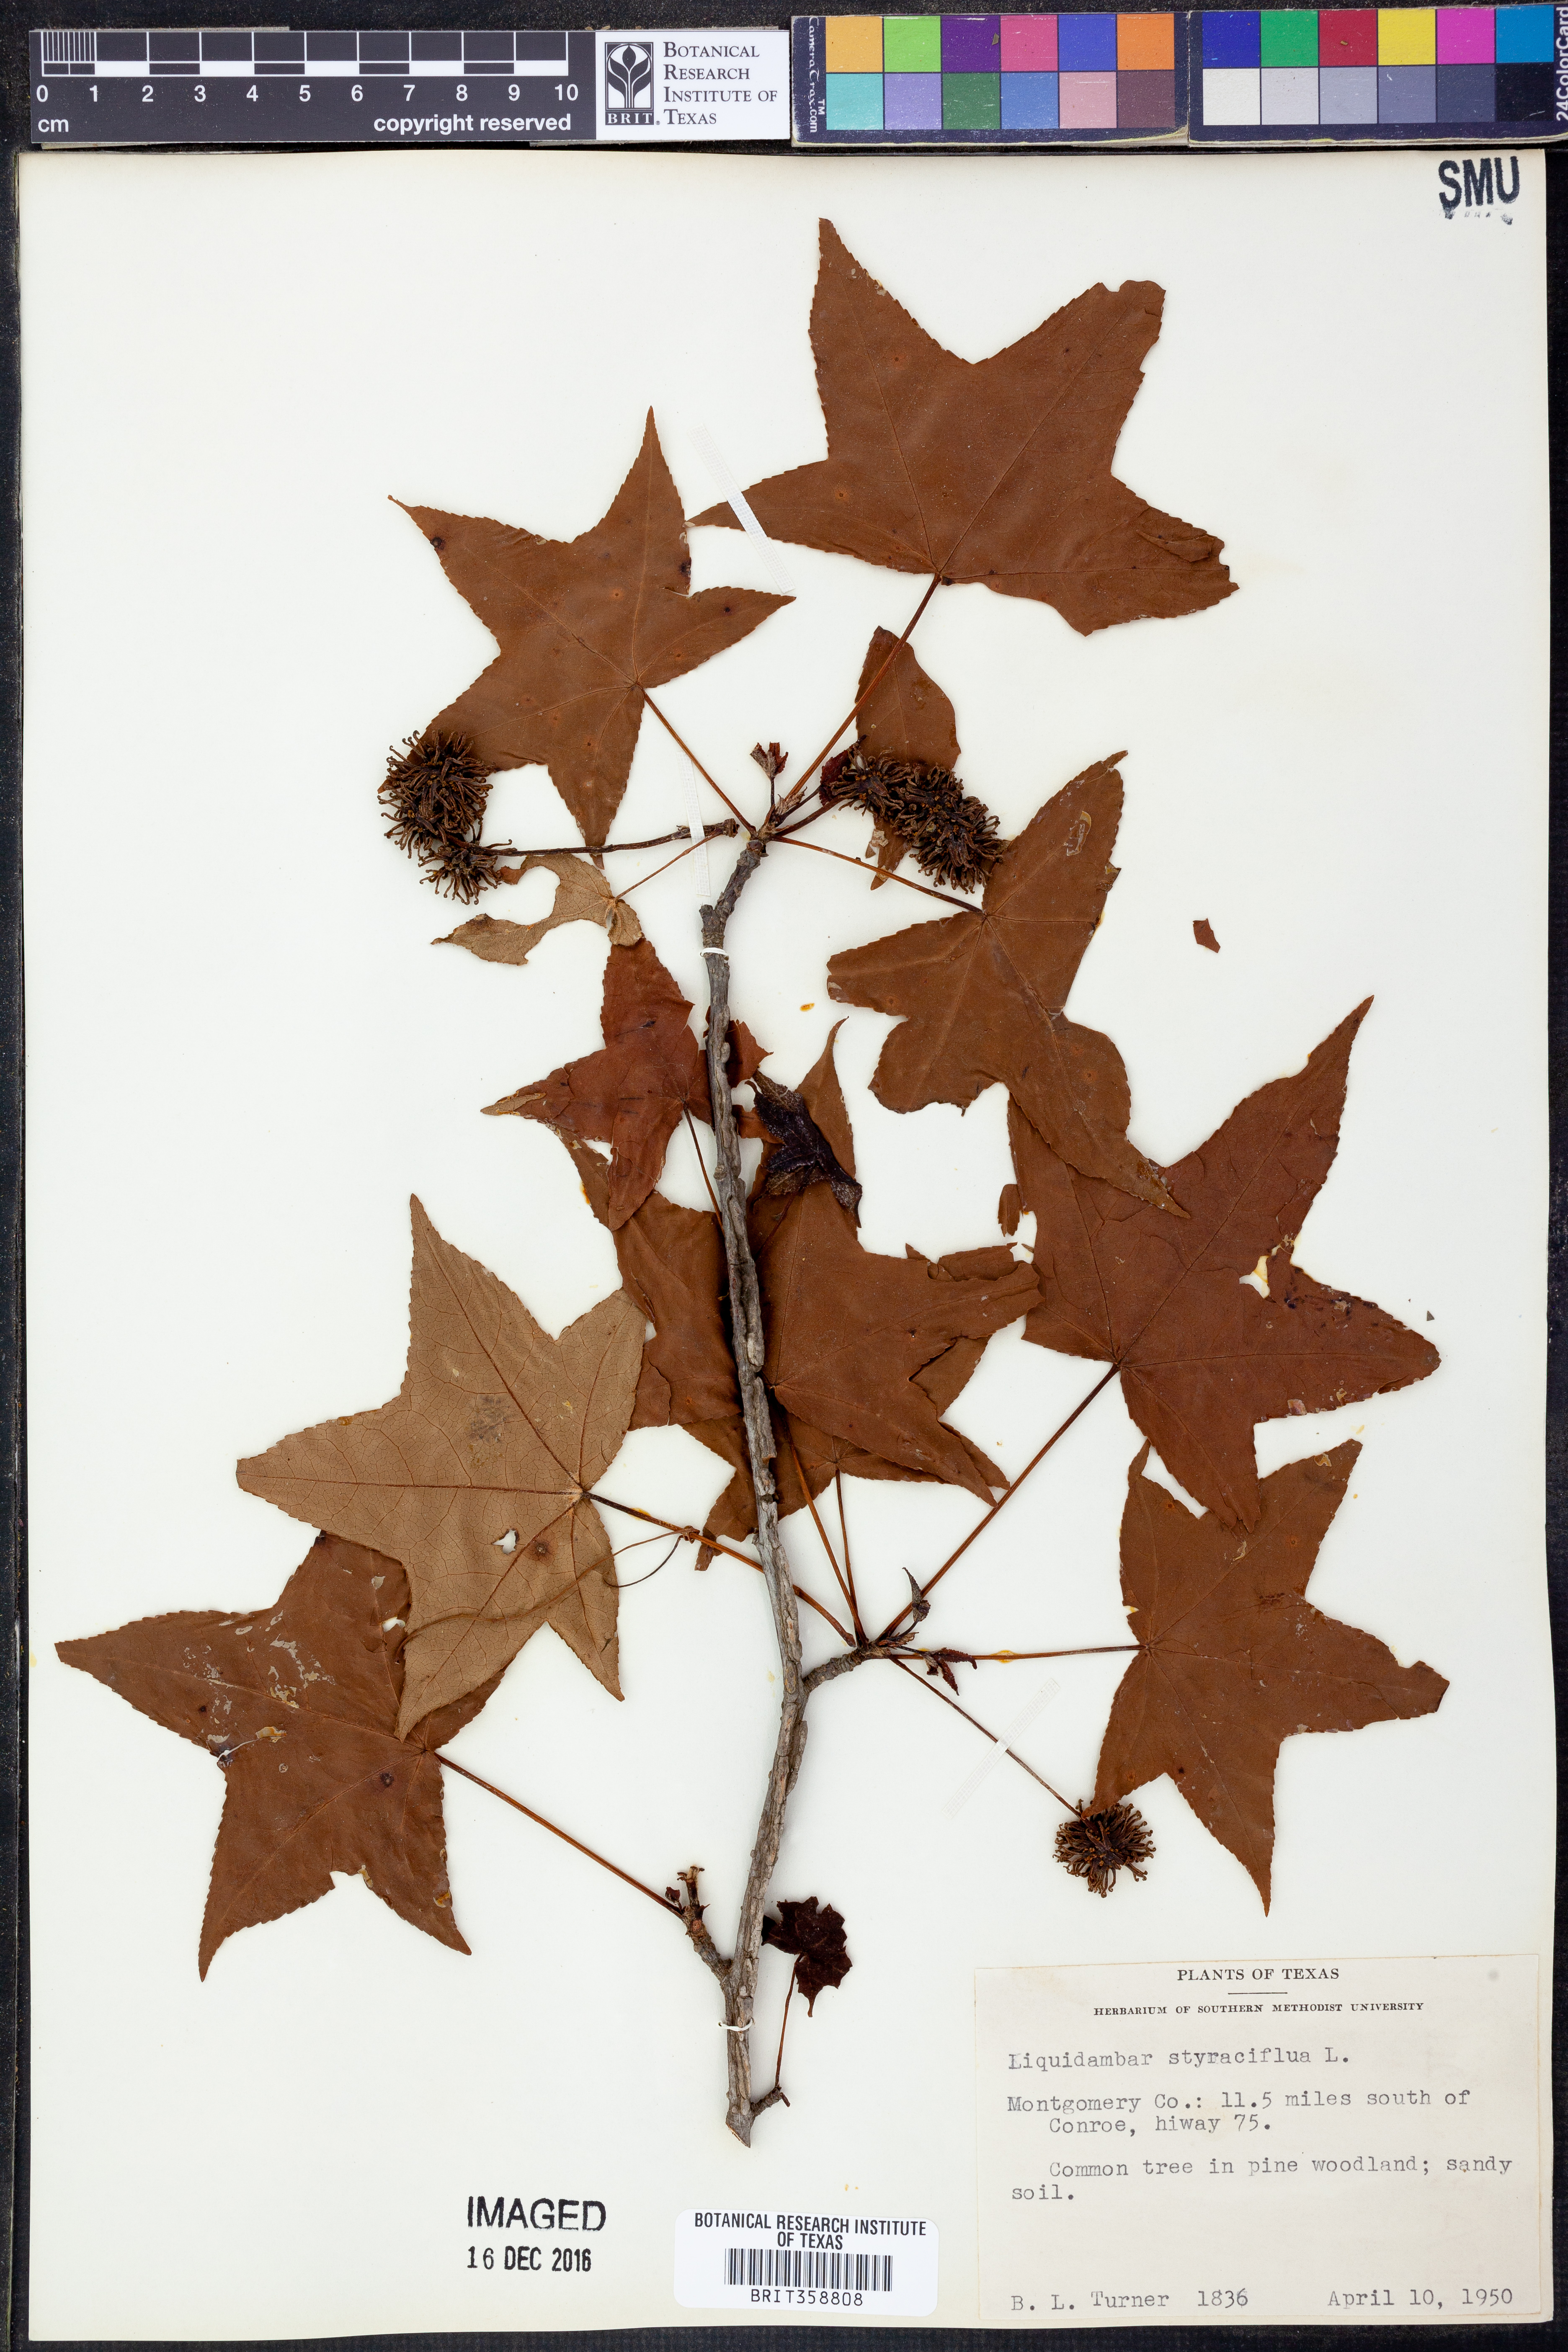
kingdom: Plantae
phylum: Tracheophyta
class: Magnoliopsida
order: Saxifragales
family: Altingiaceae
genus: Liquidambar
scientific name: Liquidambar styraciflua
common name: Sweet gum
